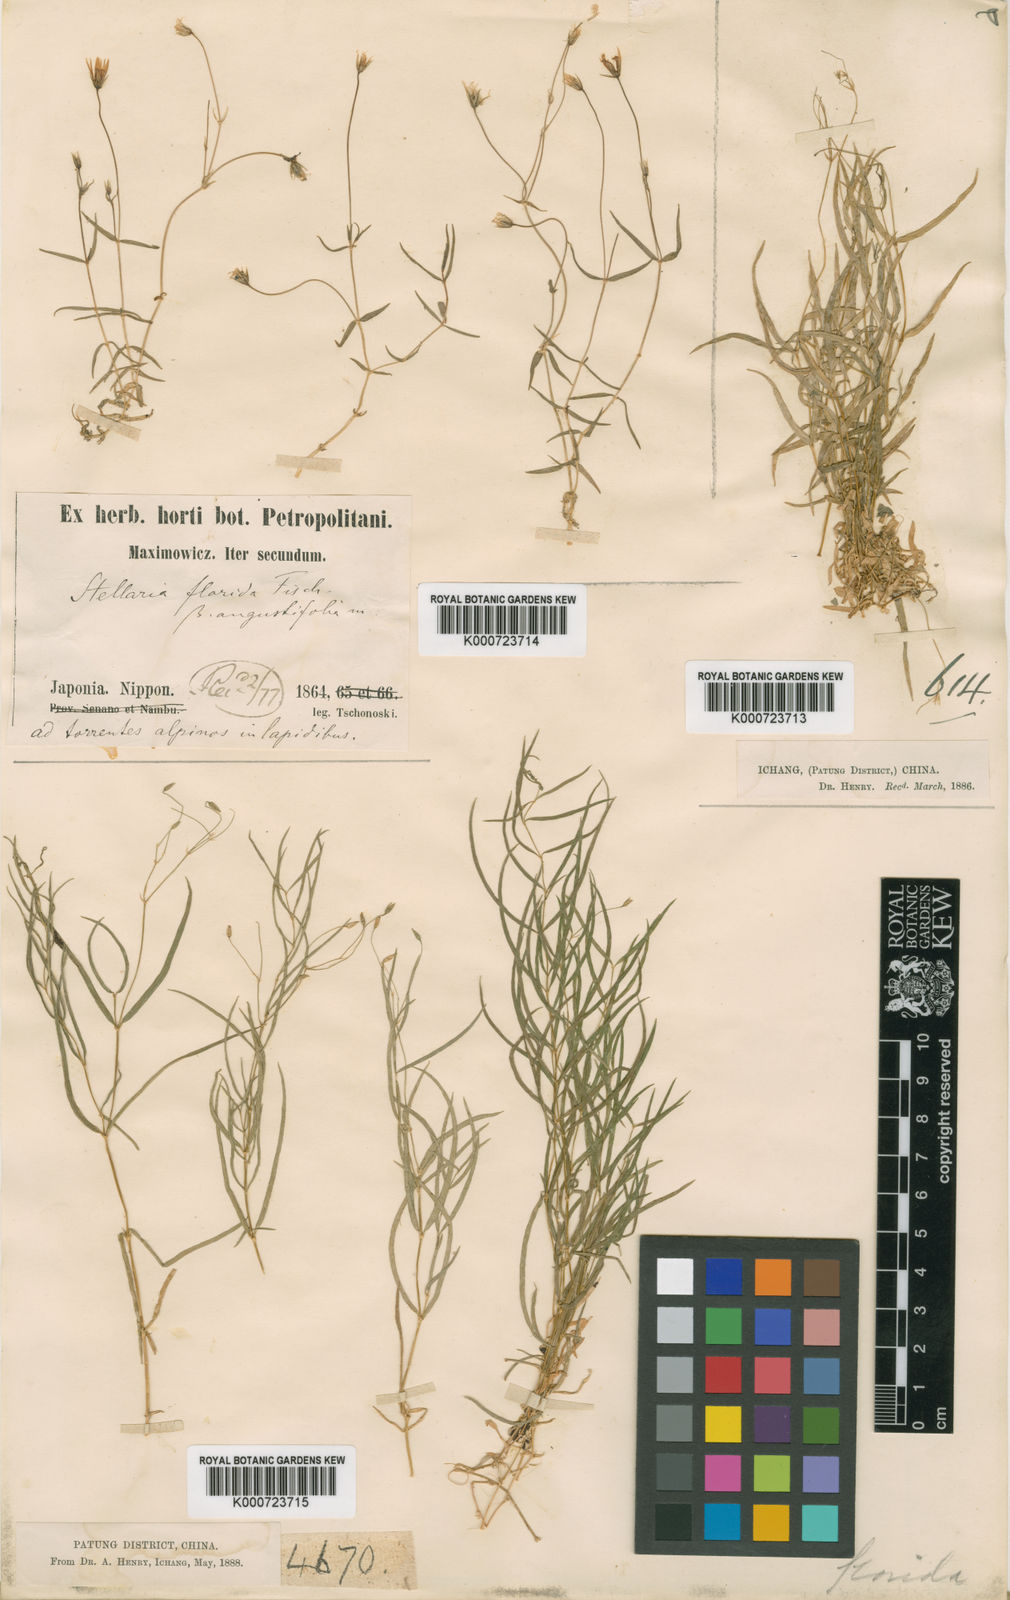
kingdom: Plantae
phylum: Tracheophyta
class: Magnoliopsida
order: Caryophyllales
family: Caryophyllaceae
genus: Stellaria
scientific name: Stellaria
